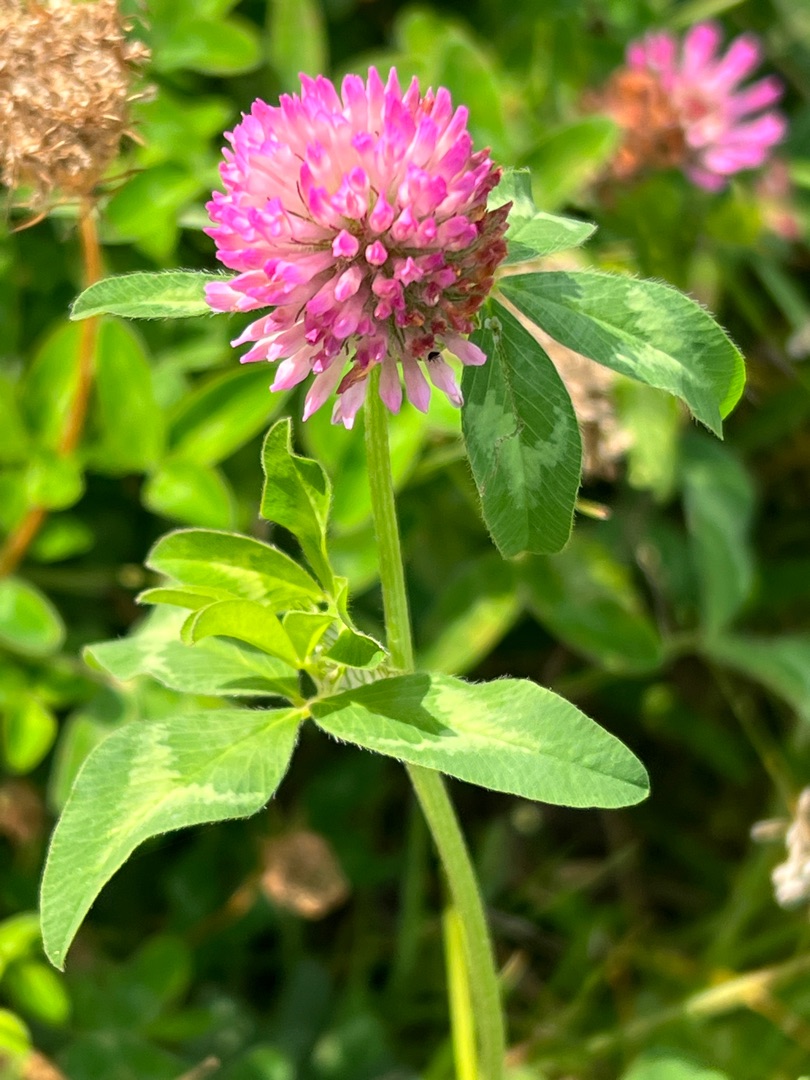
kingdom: Plantae
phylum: Tracheophyta
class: Magnoliopsida
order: Fabales
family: Fabaceae
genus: Trifolium
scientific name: Trifolium pratense
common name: Rød-kløver
